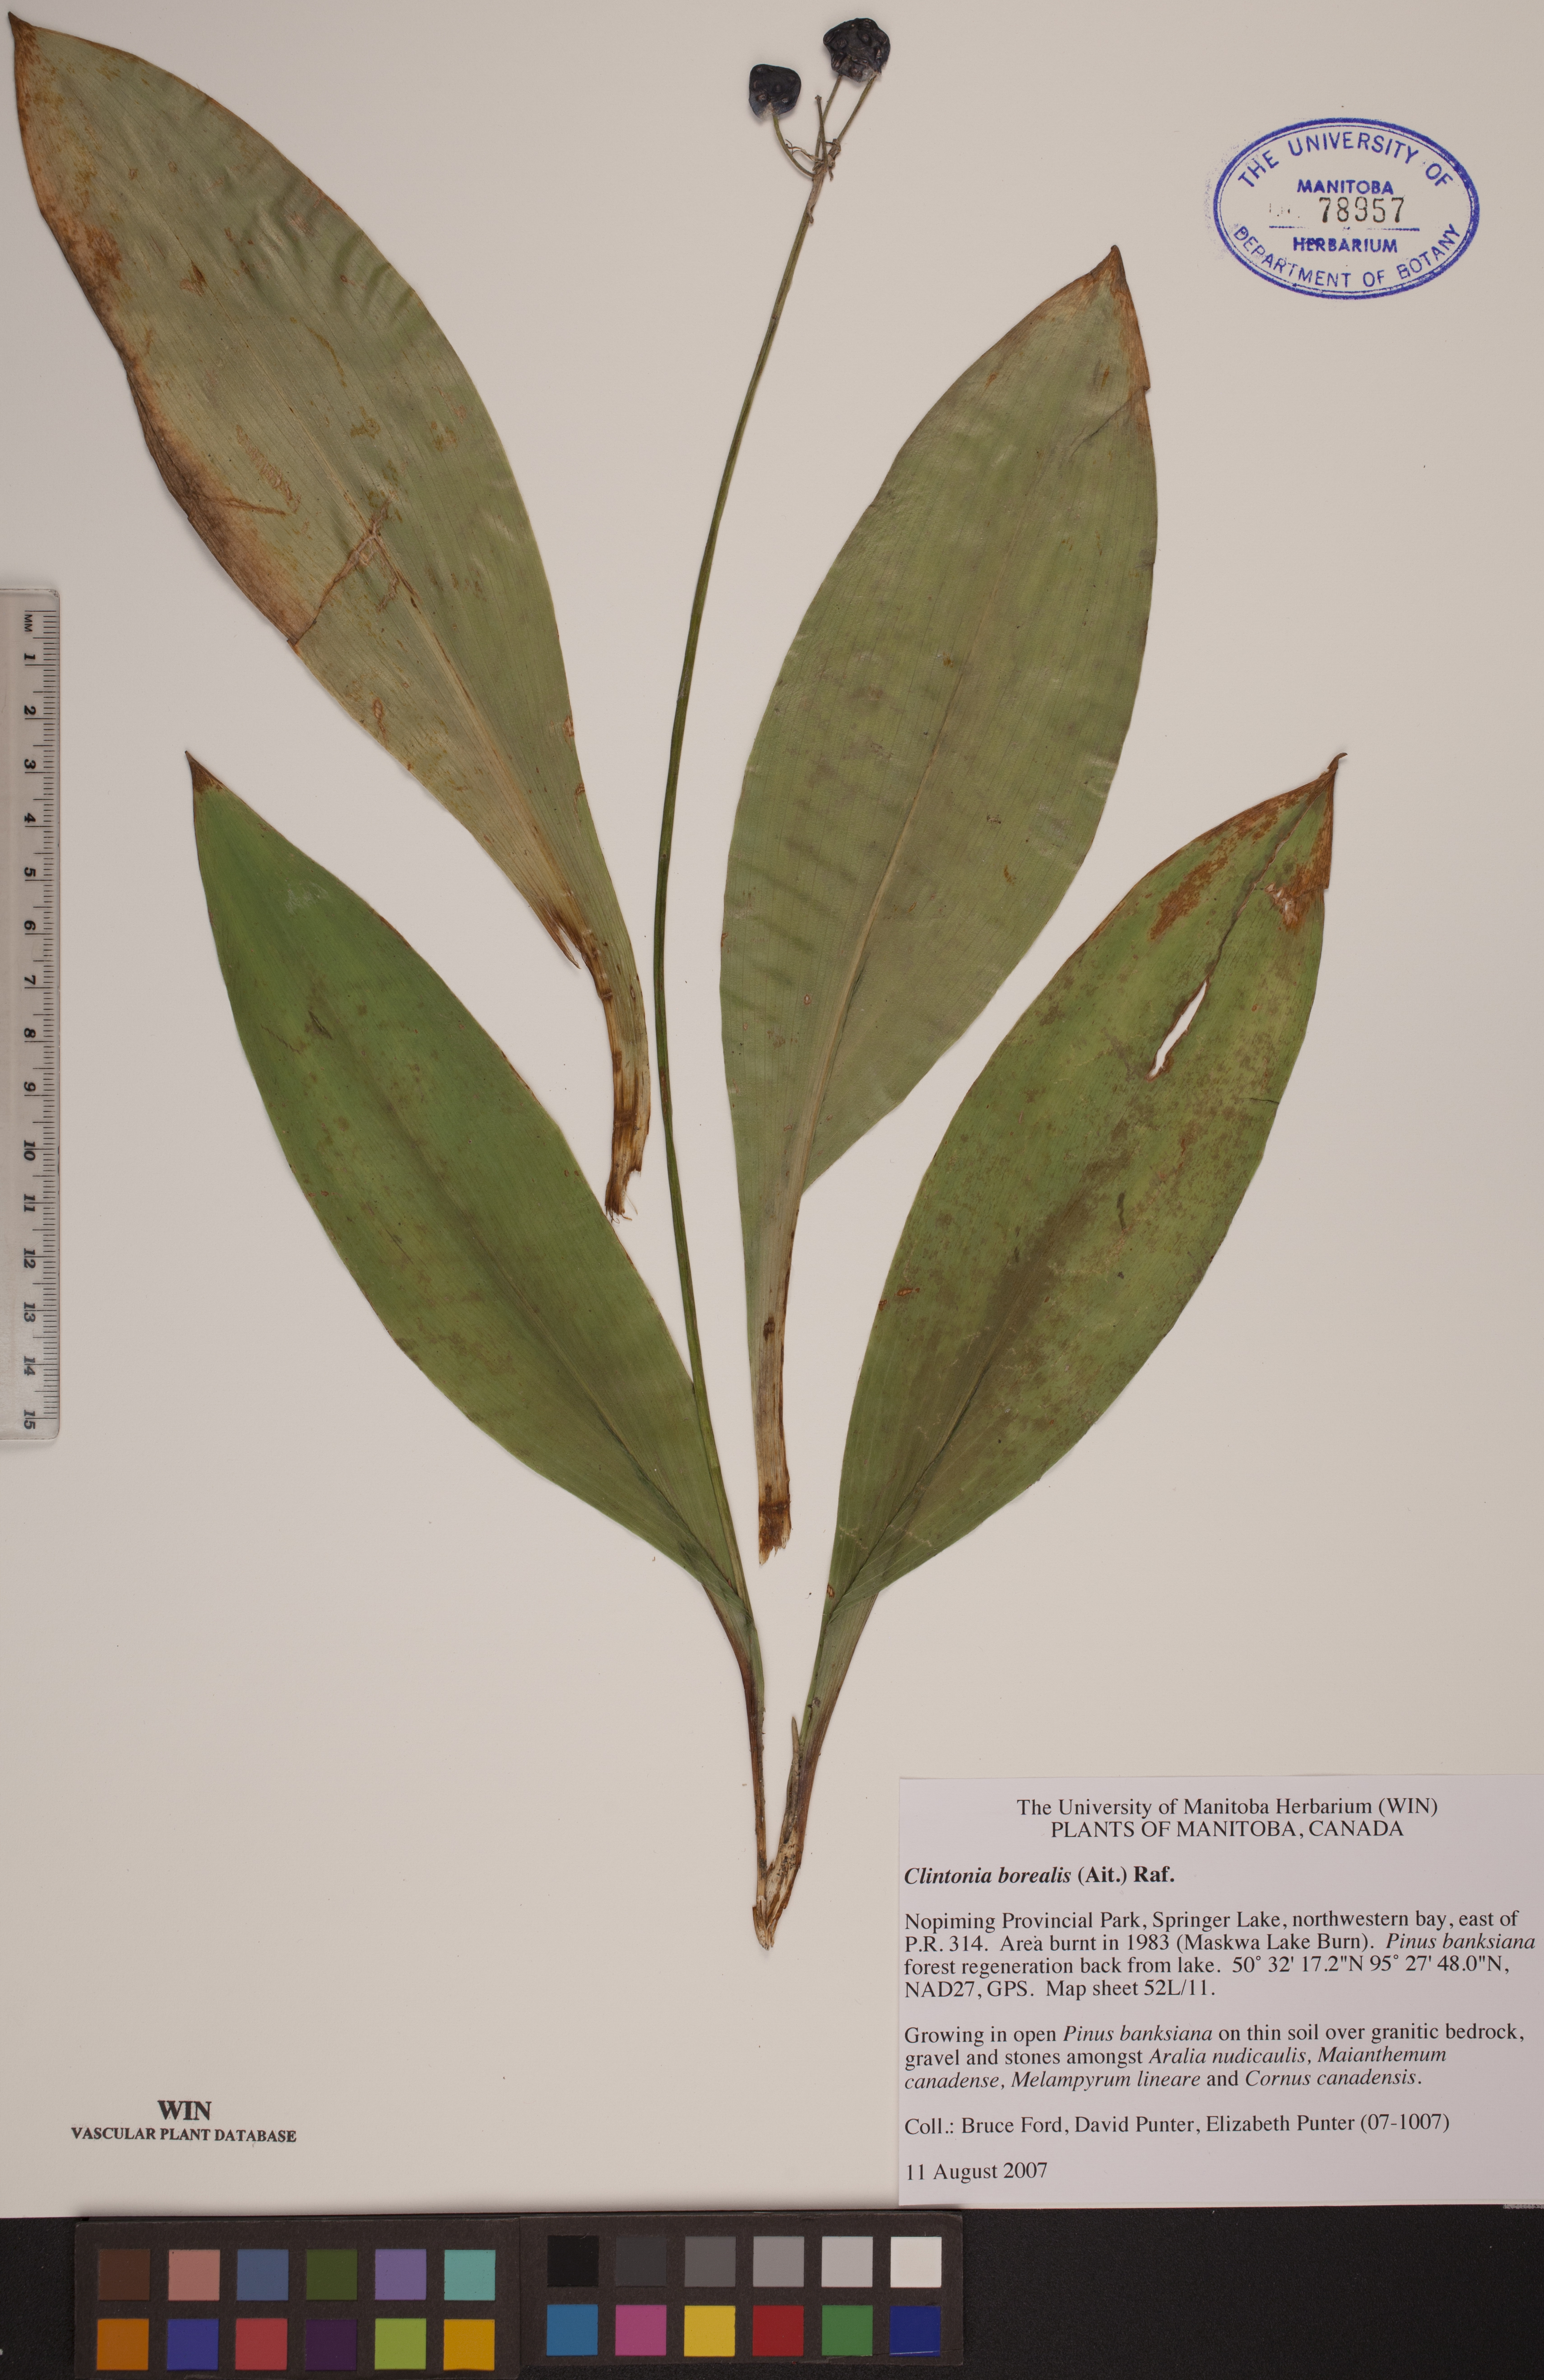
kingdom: Plantae
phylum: Tracheophyta
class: Liliopsida
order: Liliales
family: Liliaceae
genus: Clintonia
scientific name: Clintonia borealis
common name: Yellow clintonia
